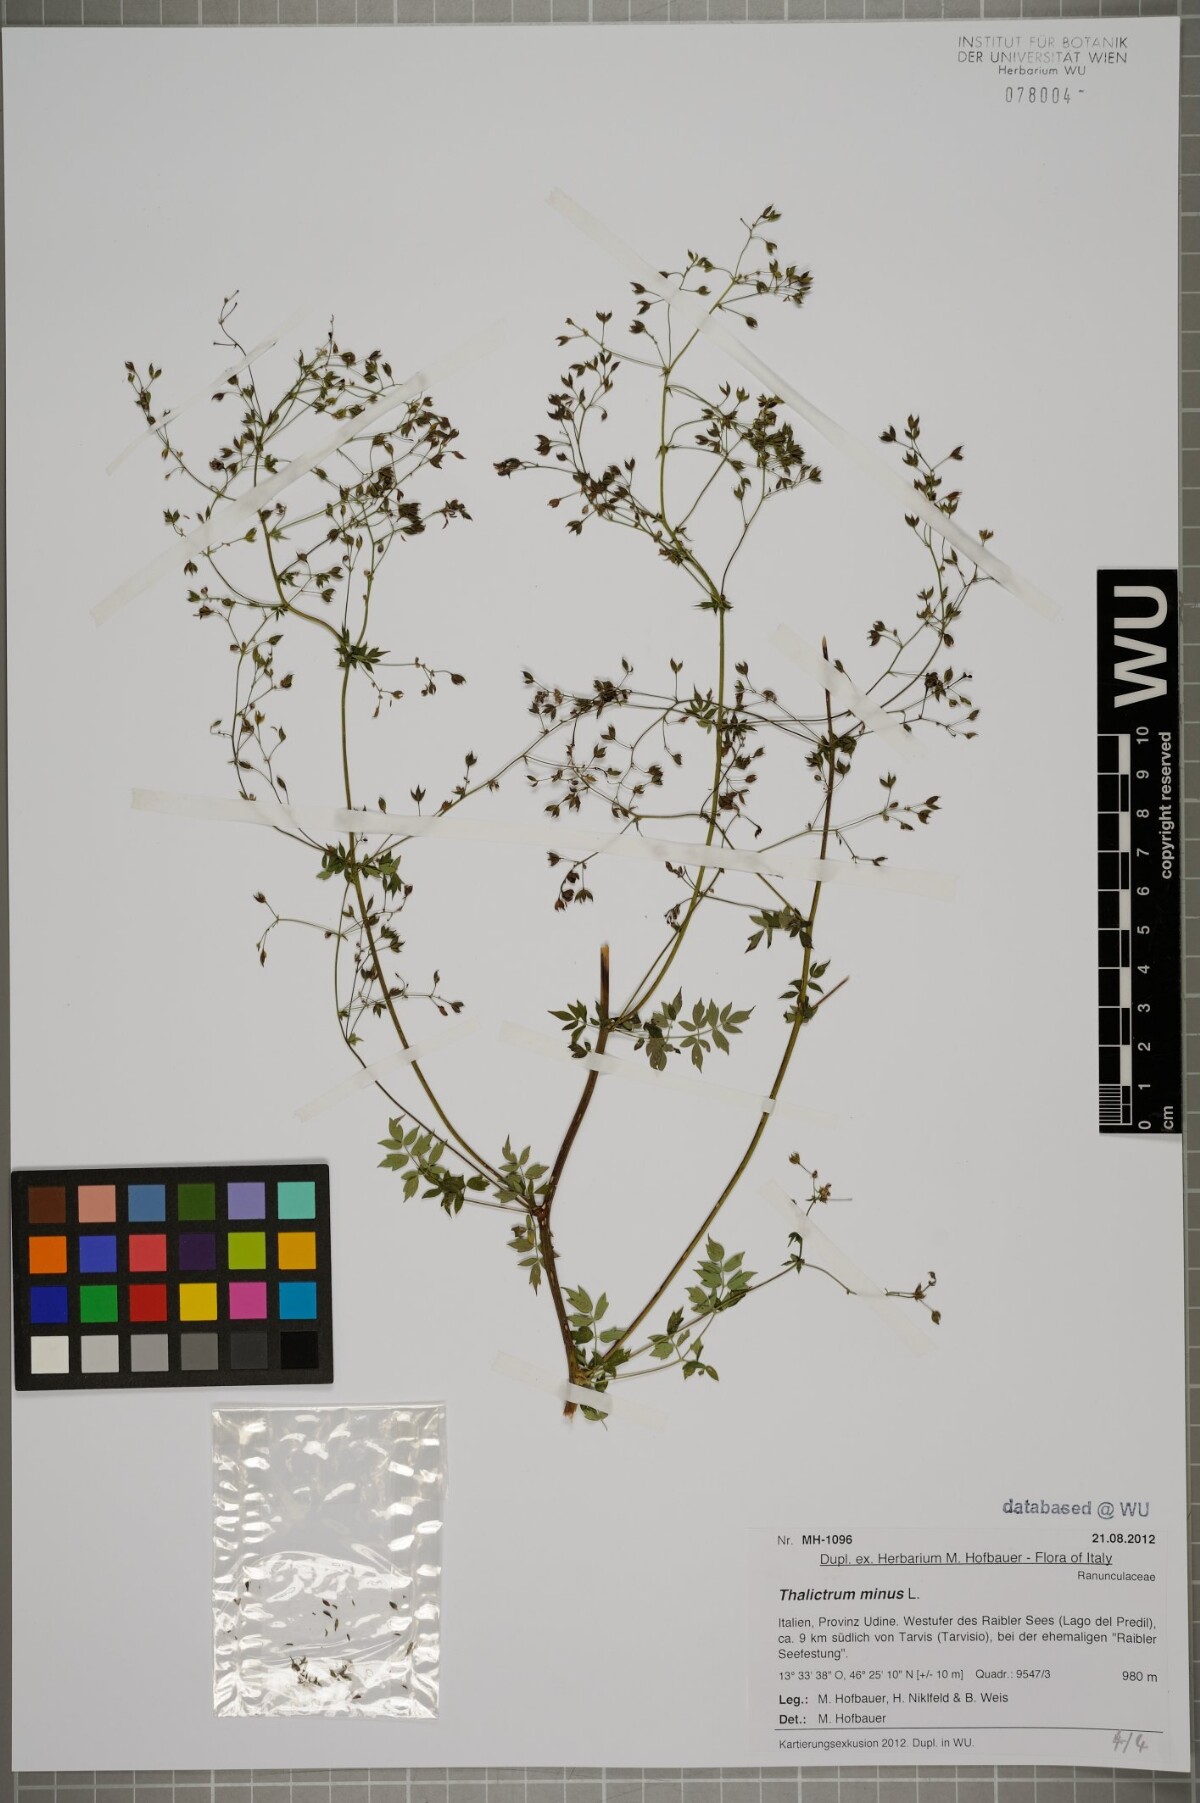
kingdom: Plantae
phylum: Tracheophyta
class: Magnoliopsida
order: Ranunculales
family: Ranunculaceae
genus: Thalictrum
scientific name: Thalictrum minus
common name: Lesser meadow-rue
